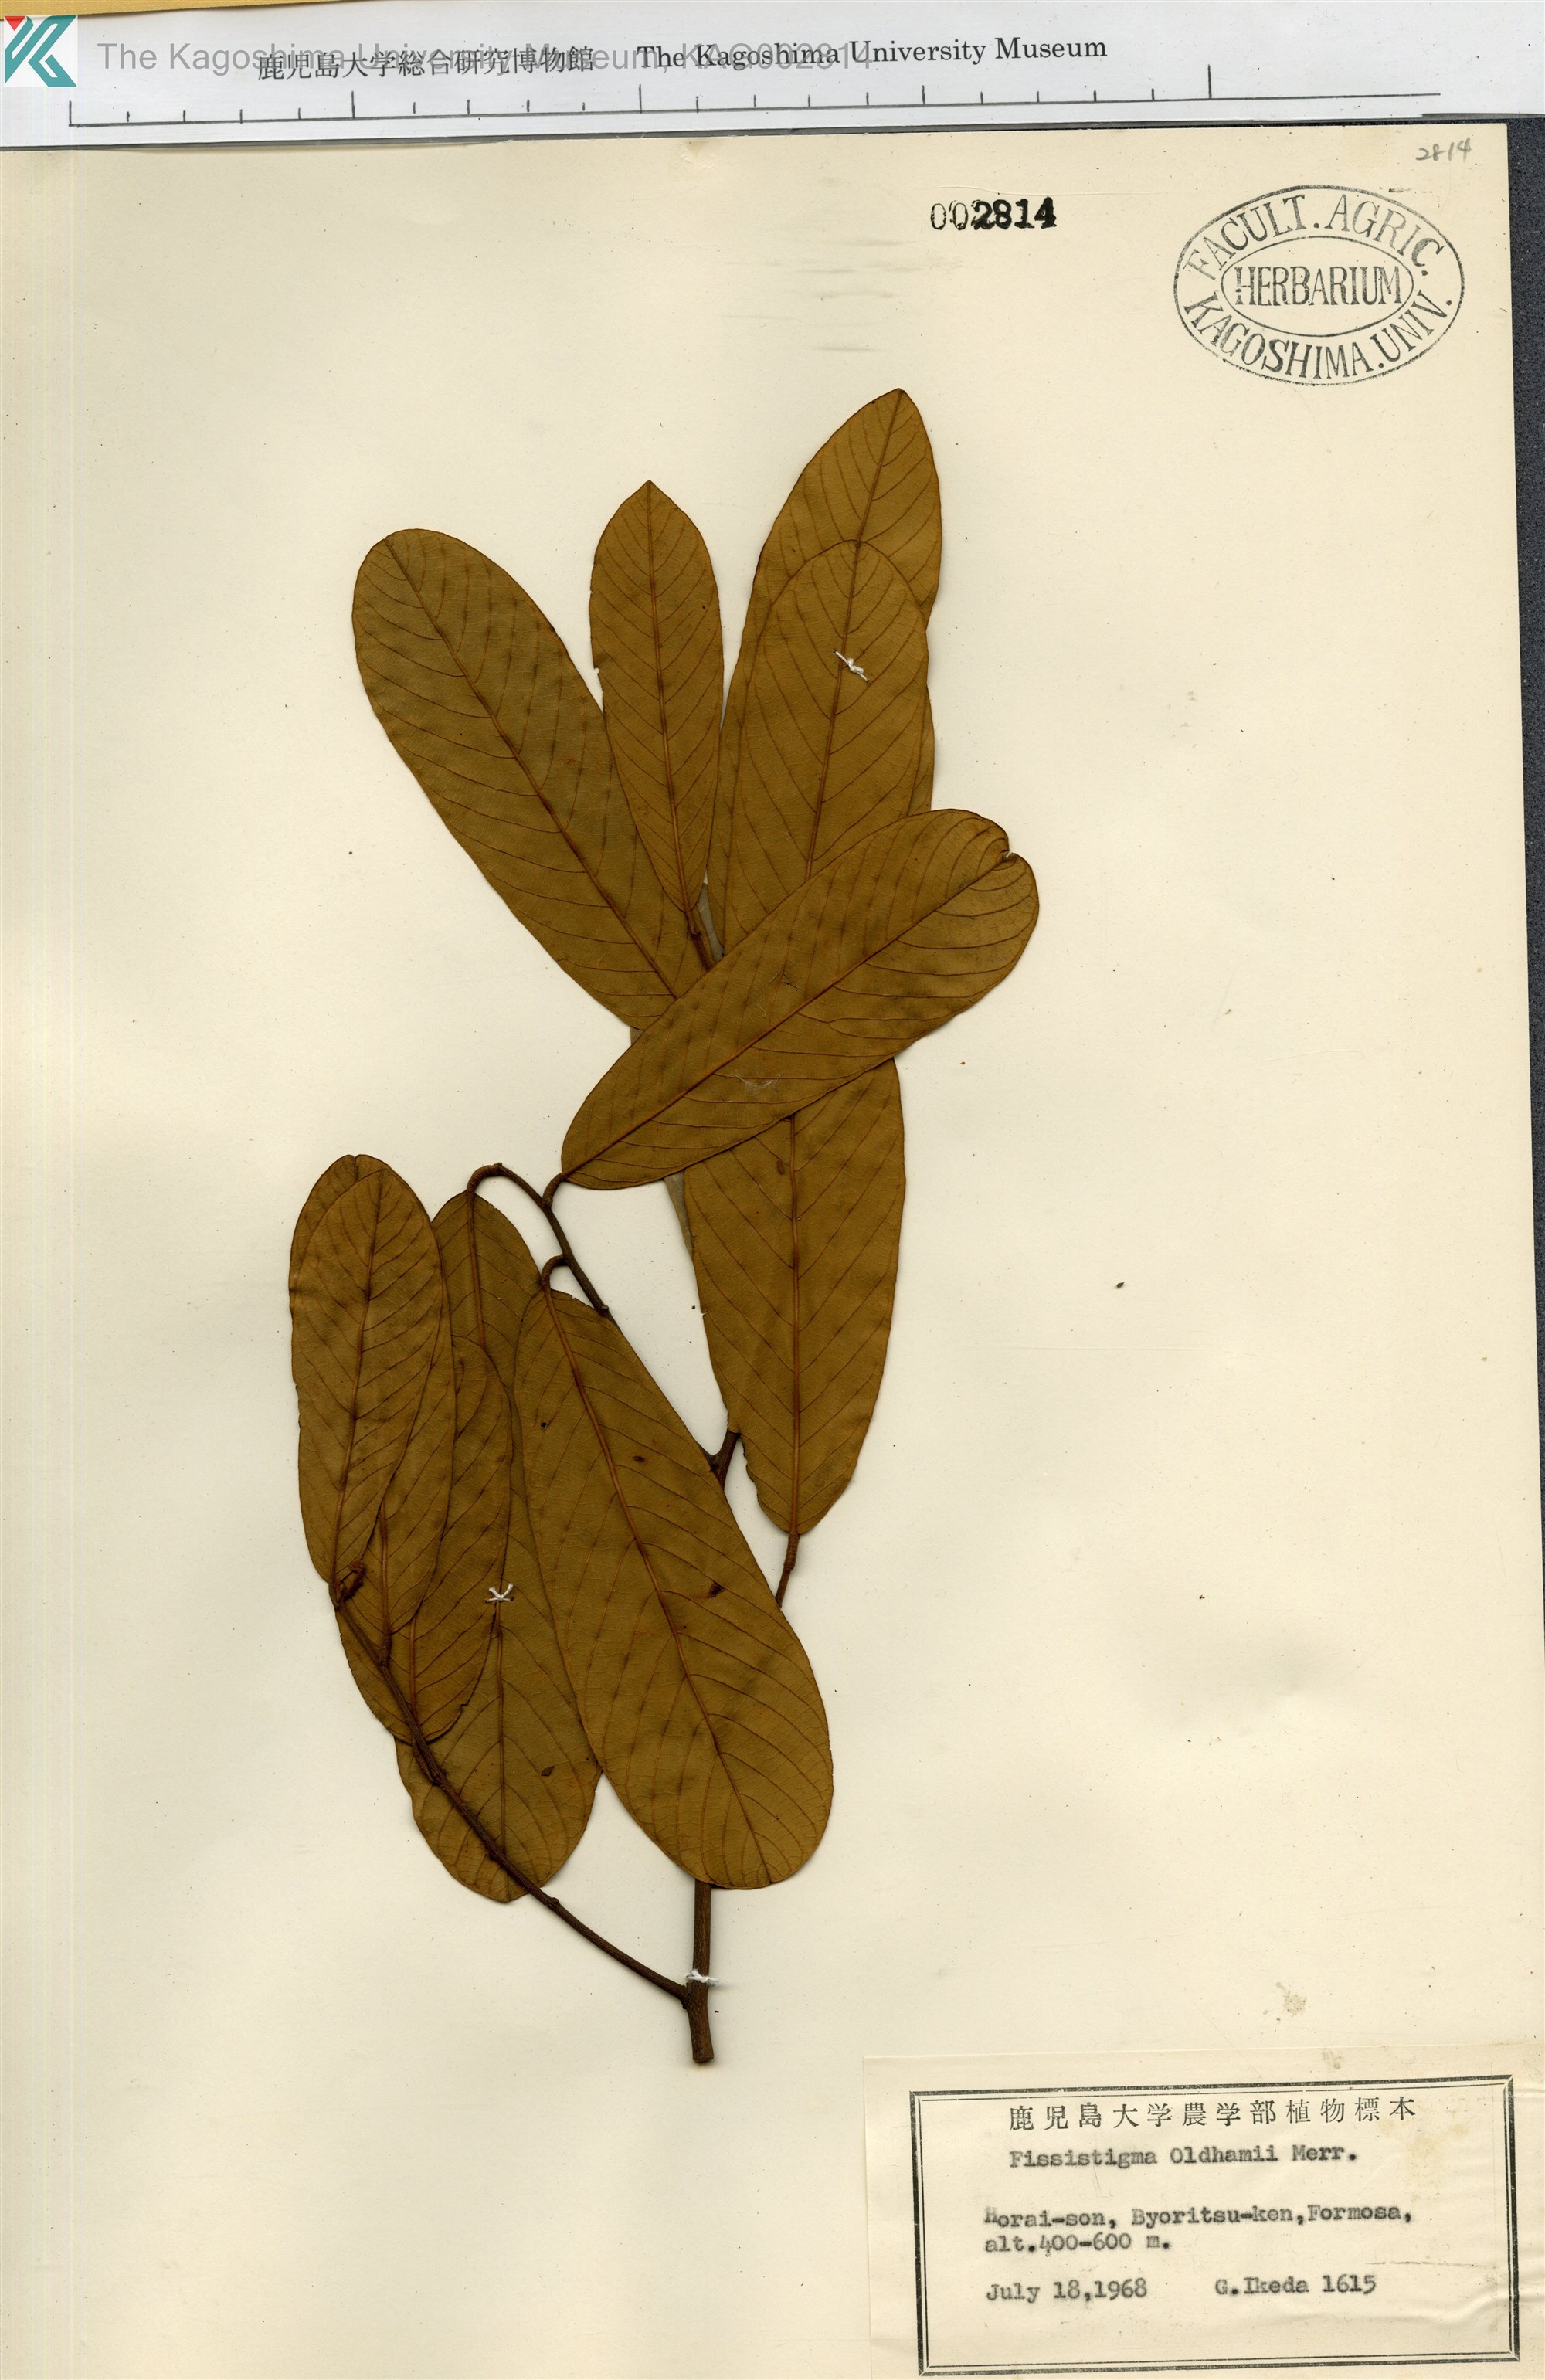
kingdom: Plantae
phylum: Tracheophyta
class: Magnoliopsida
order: Magnoliales
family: Annonaceae
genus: Fissistigma
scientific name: Fissistigma oldhamii
